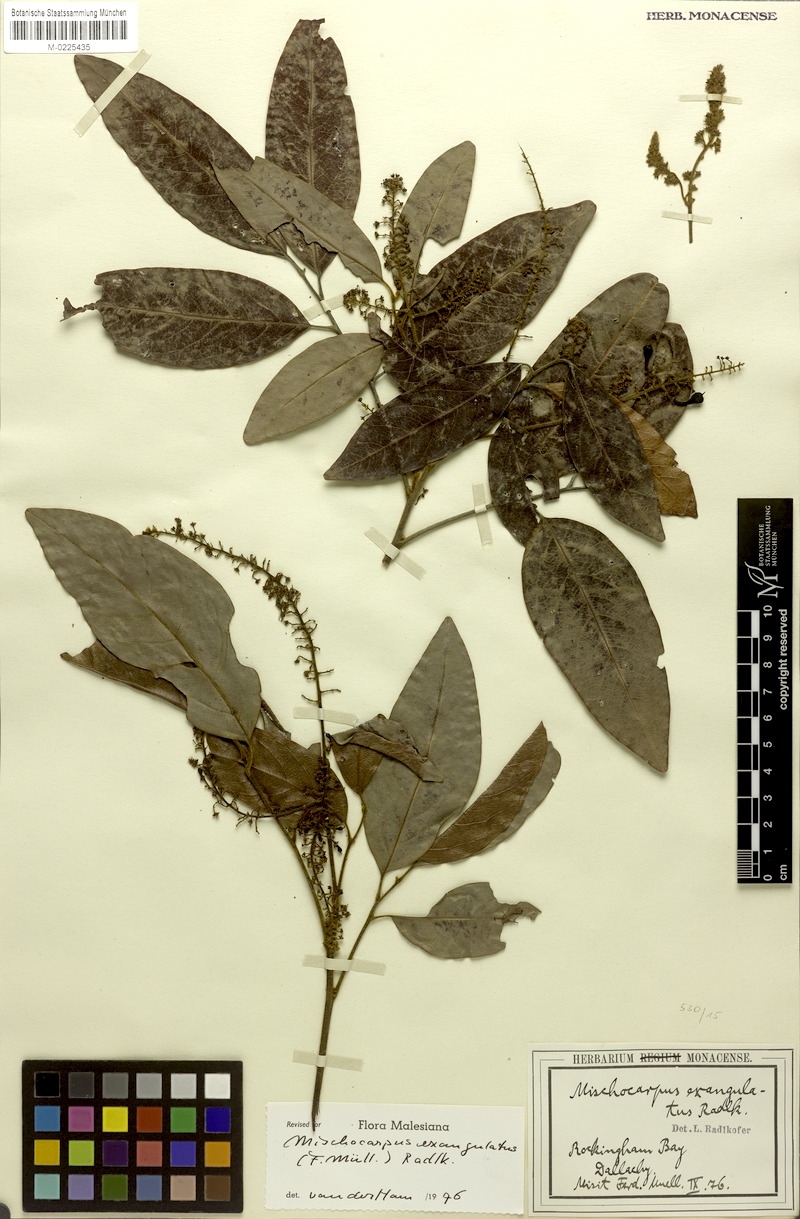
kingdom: Plantae
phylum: Tracheophyta
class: Magnoliopsida
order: Sapindales
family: Sapindaceae
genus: Mischocarpus
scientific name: Mischocarpus exangulatus
